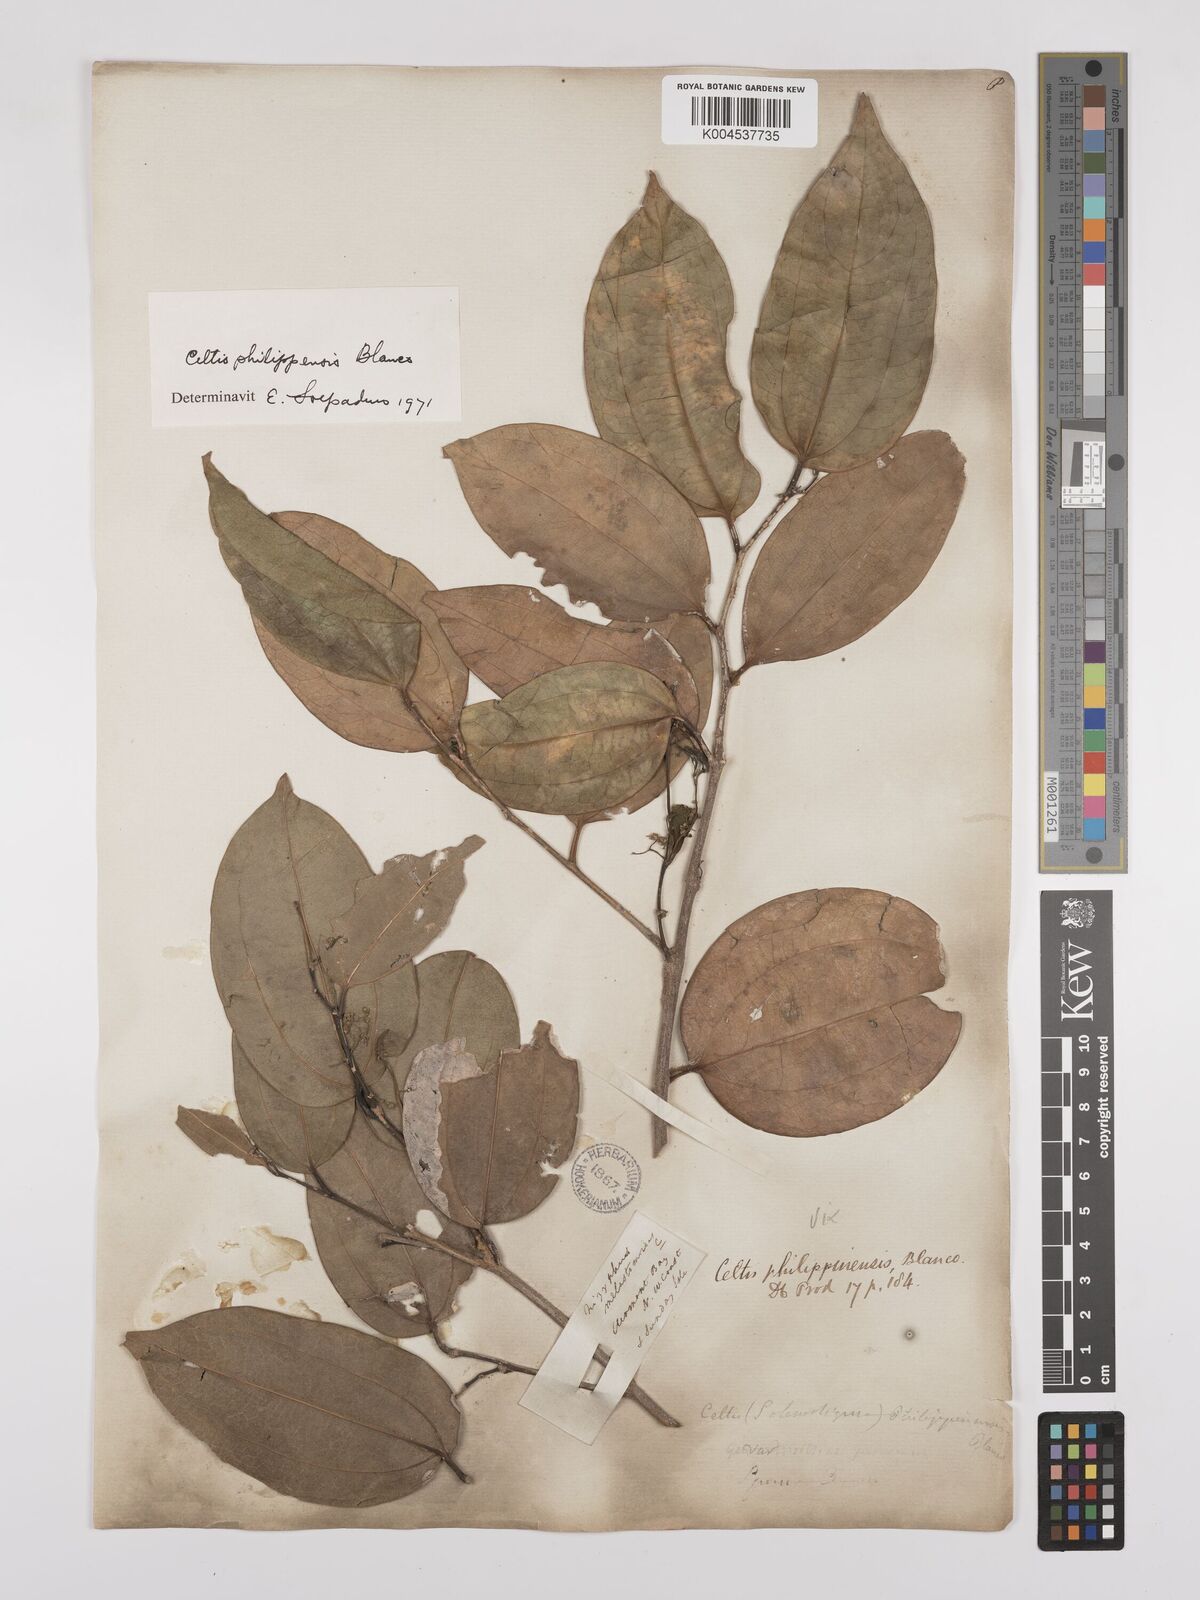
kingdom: Plantae
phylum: Tracheophyta
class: Magnoliopsida
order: Rosales
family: Cannabaceae
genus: Celtis
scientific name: Celtis philippensis
